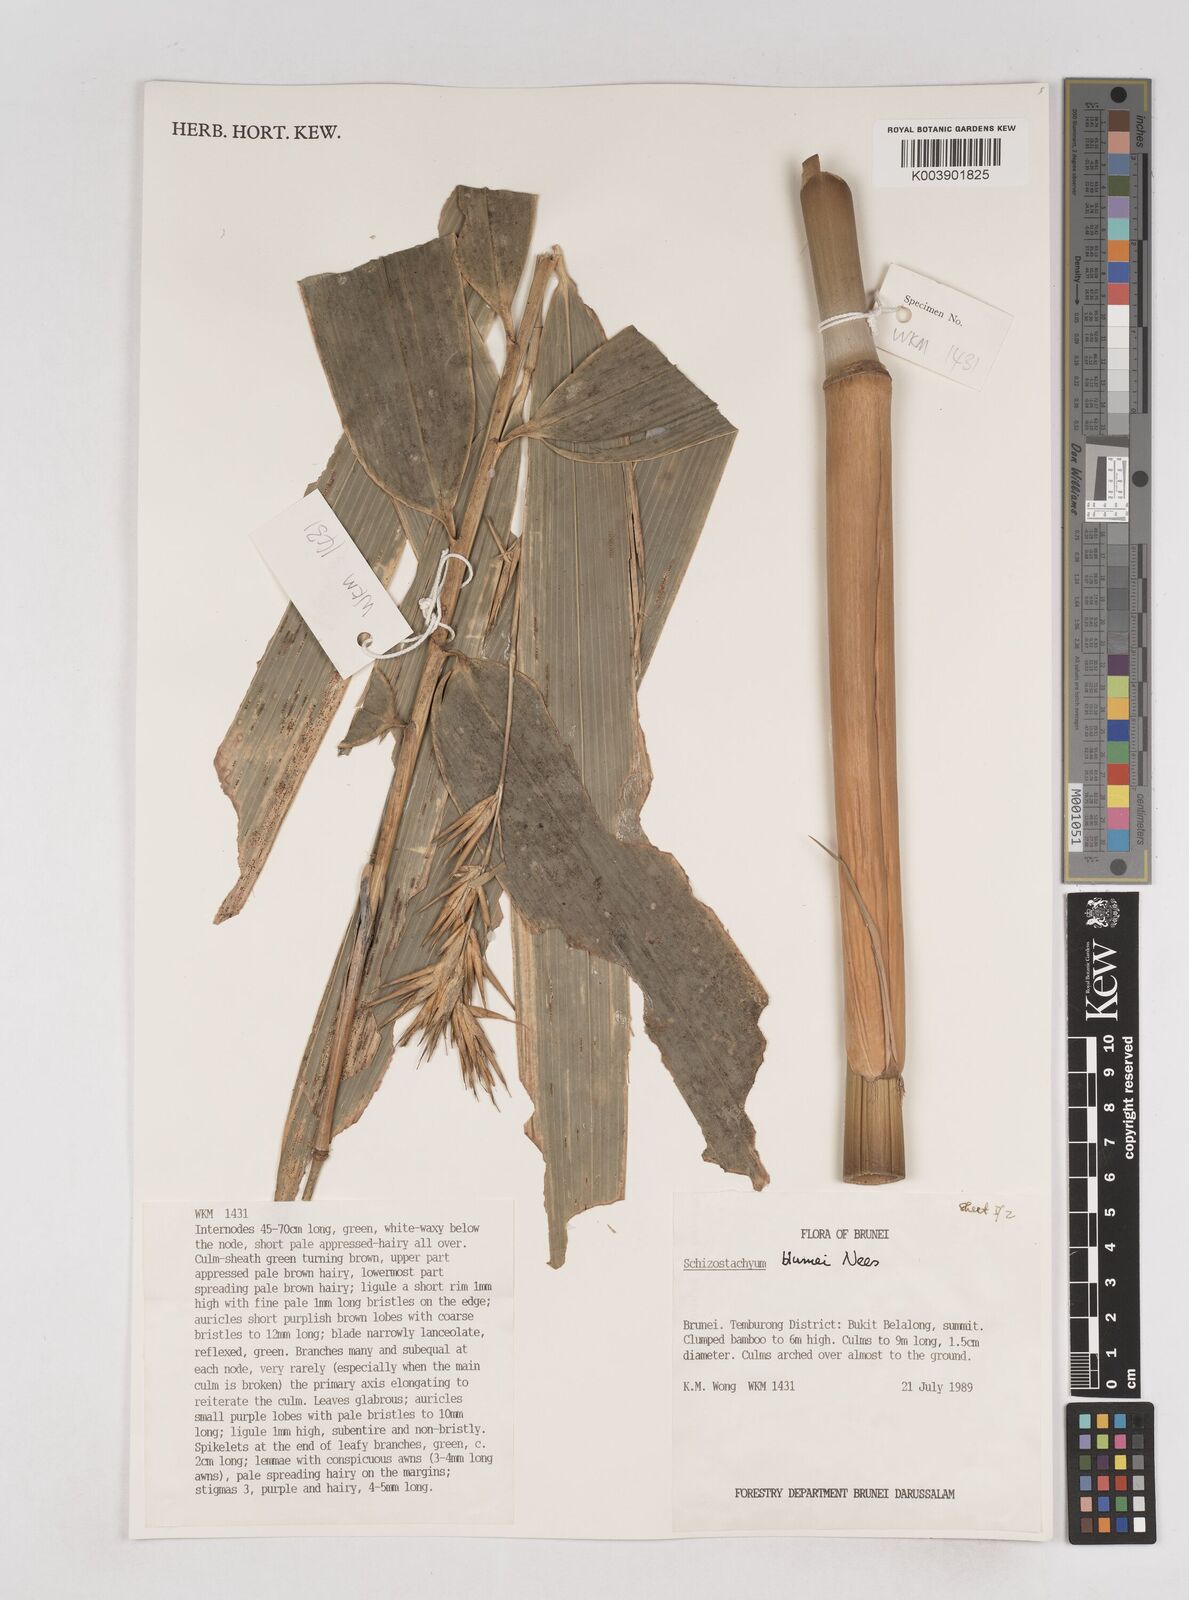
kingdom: Plantae
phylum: Tracheophyta
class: Liliopsida
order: Poales
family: Poaceae
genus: Schizostachyum
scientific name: Schizostachyum blumei
